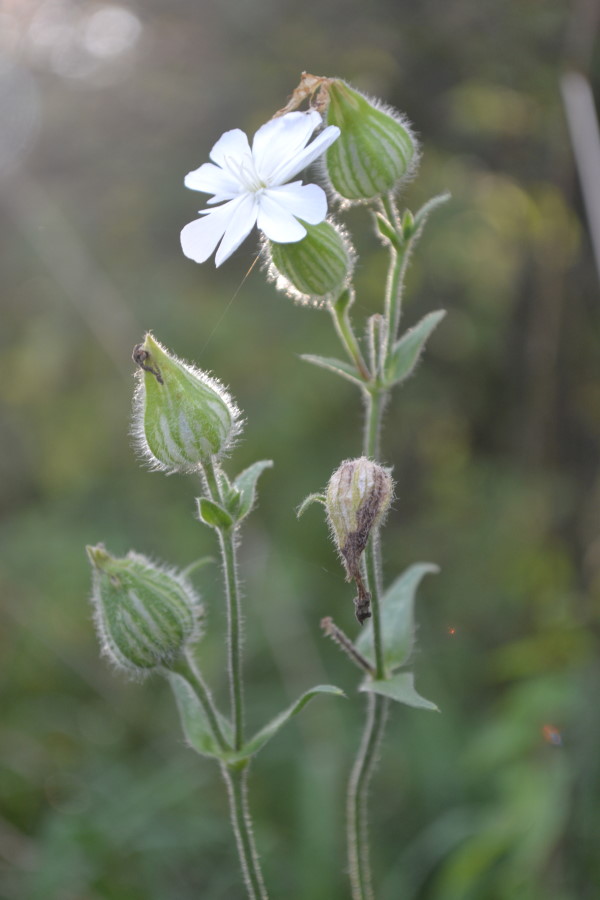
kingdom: Plantae
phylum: Tracheophyta
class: Magnoliopsida
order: Caryophyllales
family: Caryophyllaceae
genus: Silene
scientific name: Silene
